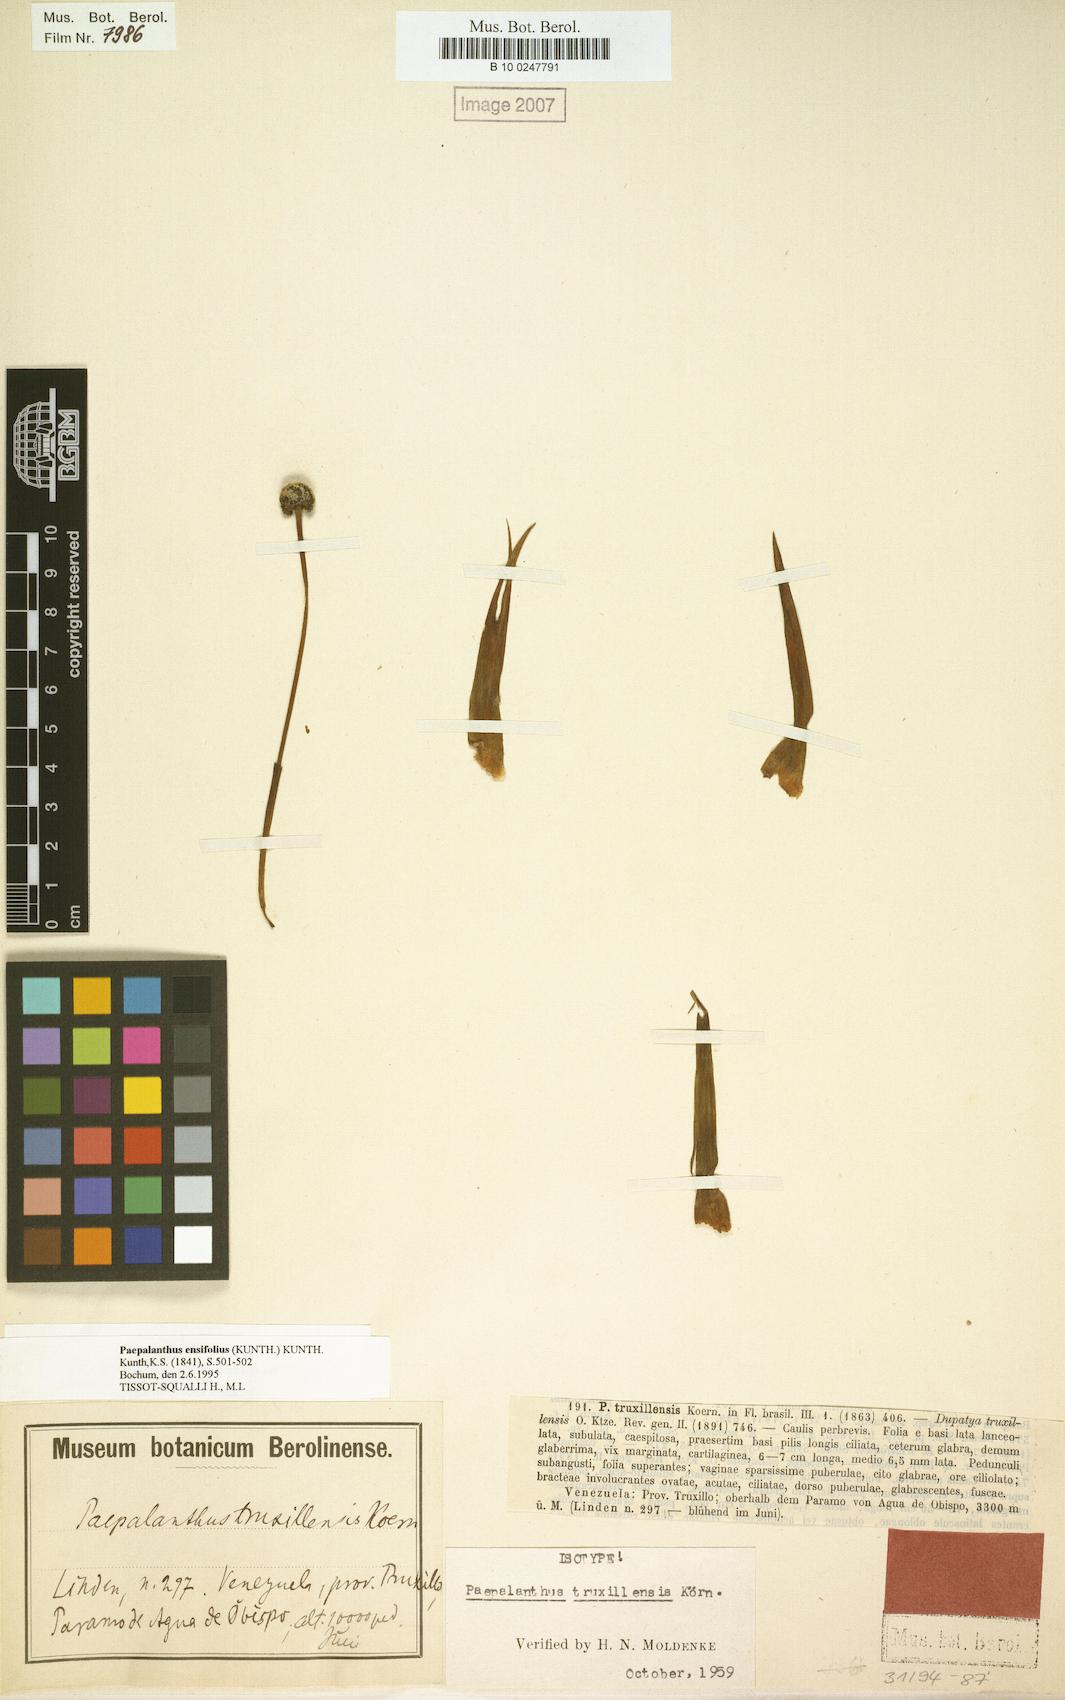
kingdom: Plantae
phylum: Tracheophyta
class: Liliopsida
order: Poales
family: Eriocaulaceae
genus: Paepalanthus
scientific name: Paepalanthus ensifolius
